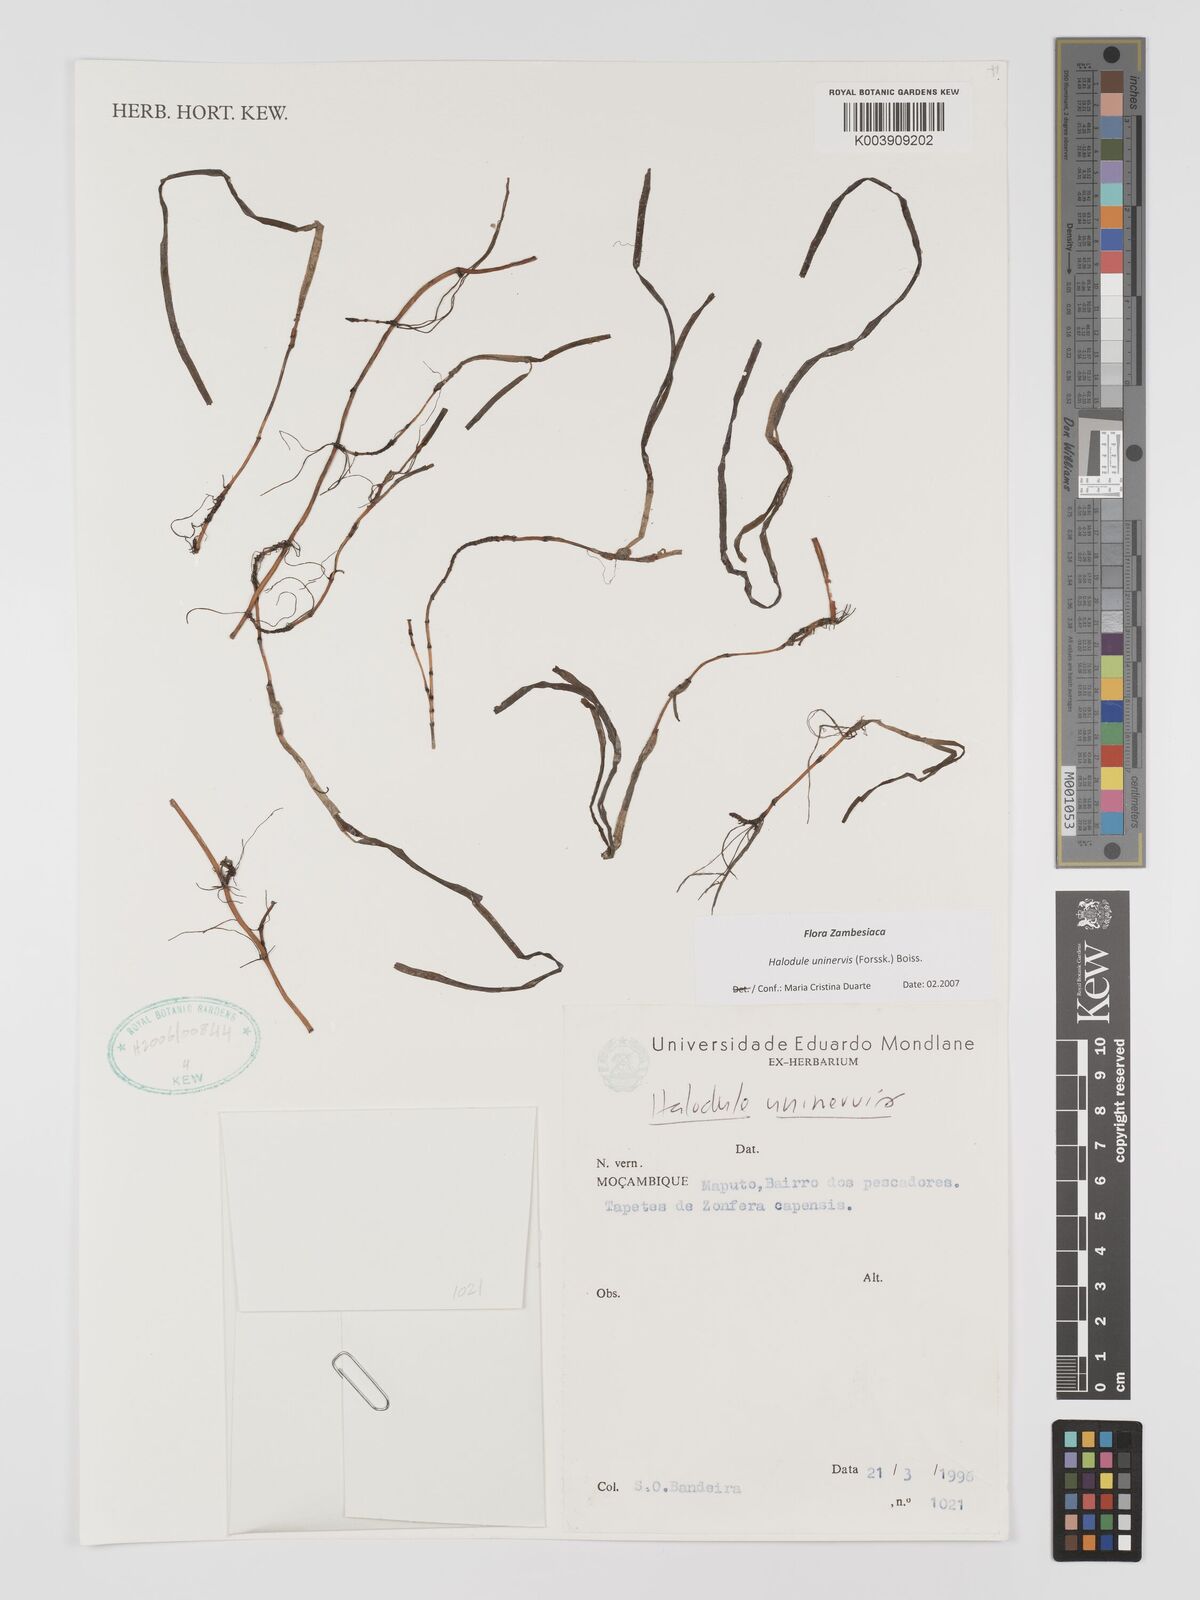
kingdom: Plantae
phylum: Tracheophyta
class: Liliopsida
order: Alismatales
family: Cymodoceaceae
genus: Halodule
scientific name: Halodule uninervis
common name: Narrowleaf seagrass
